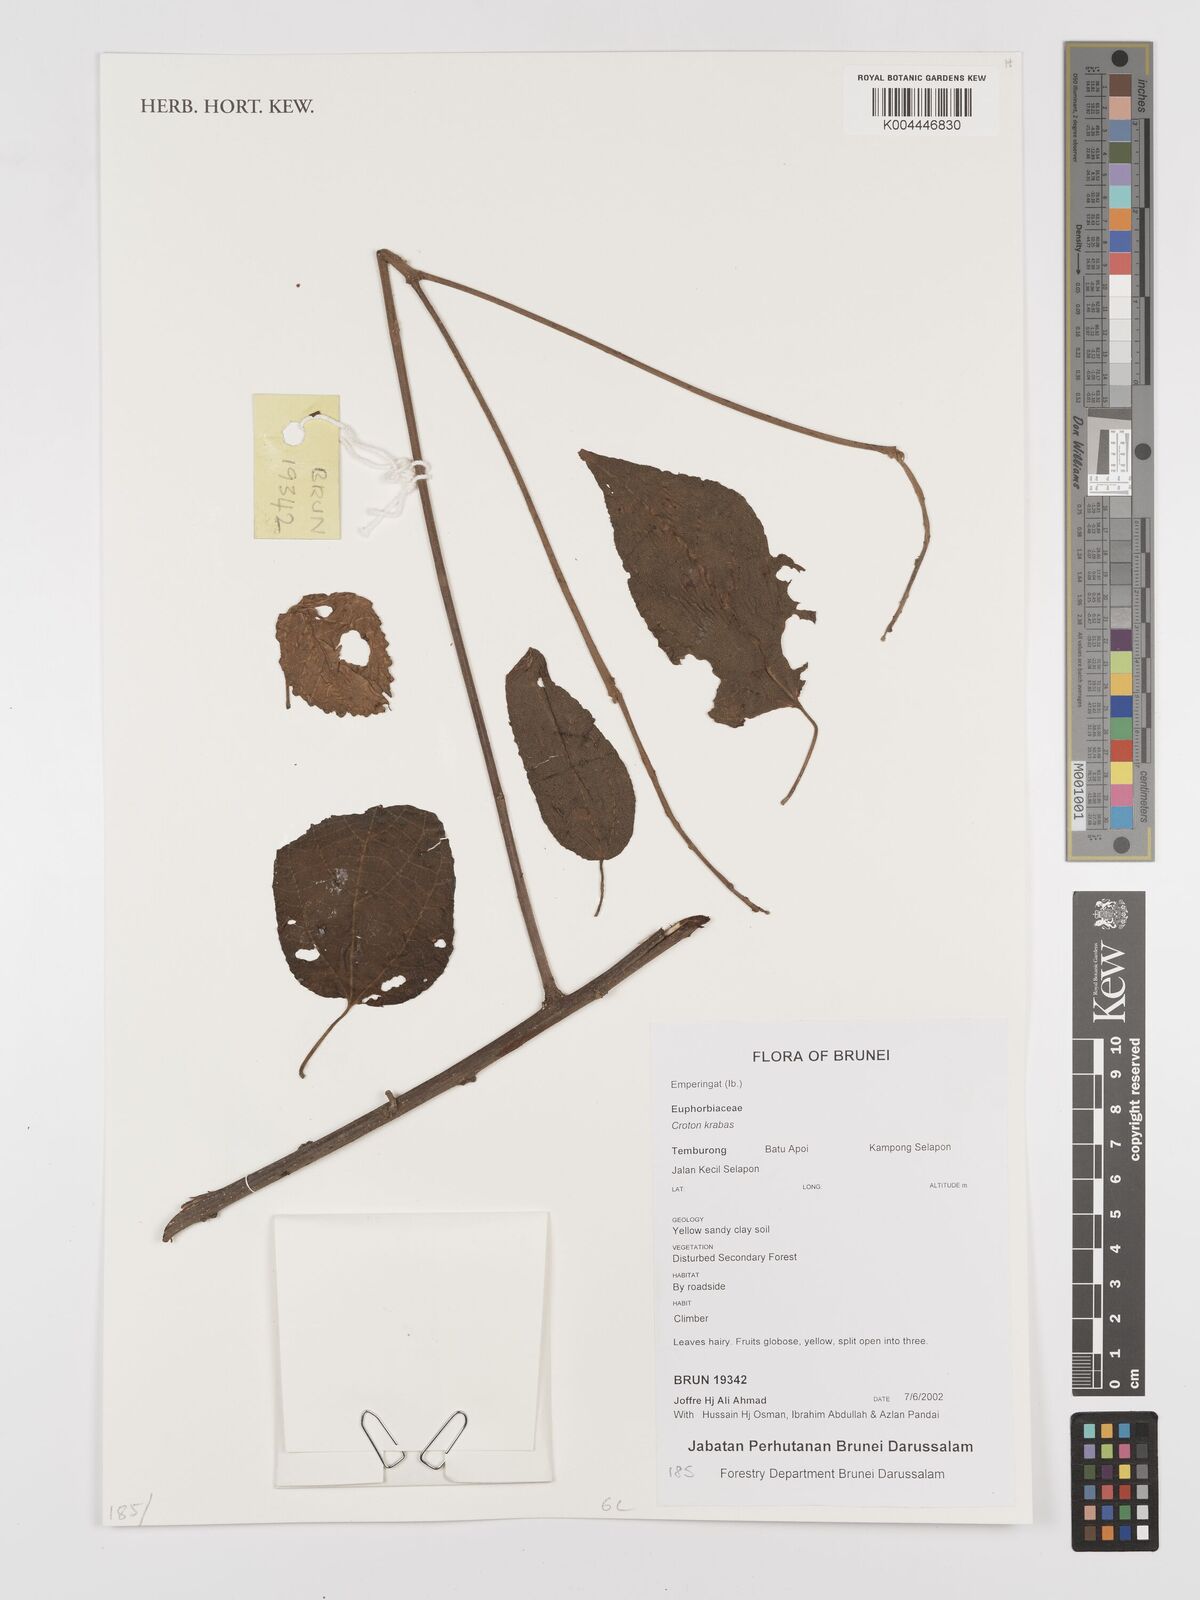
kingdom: Plantae
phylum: Tracheophyta
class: Magnoliopsida
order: Malpighiales
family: Euphorbiaceae
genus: Croton
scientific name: Croton krabas
